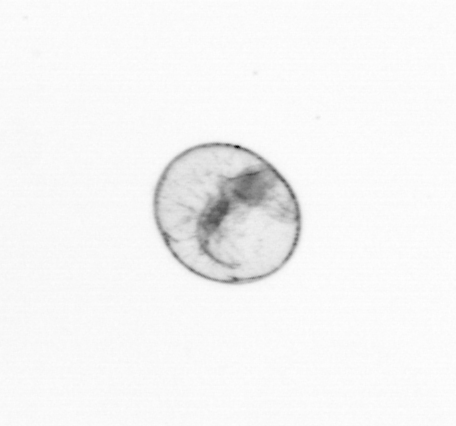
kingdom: Chromista
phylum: Myzozoa
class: Dinophyceae
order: Noctilucales
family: Noctilucaceae
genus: Noctiluca
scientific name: Noctiluca scintillans
